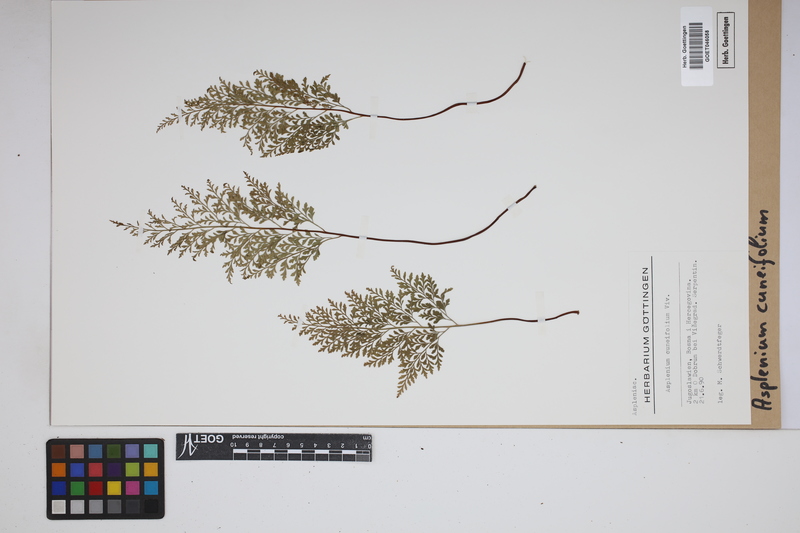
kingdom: Plantae
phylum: Tracheophyta
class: Polypodiopsida
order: Polypodiales
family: Aspleniaceae
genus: Asplenium
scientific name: Asplenium cuneifolium
